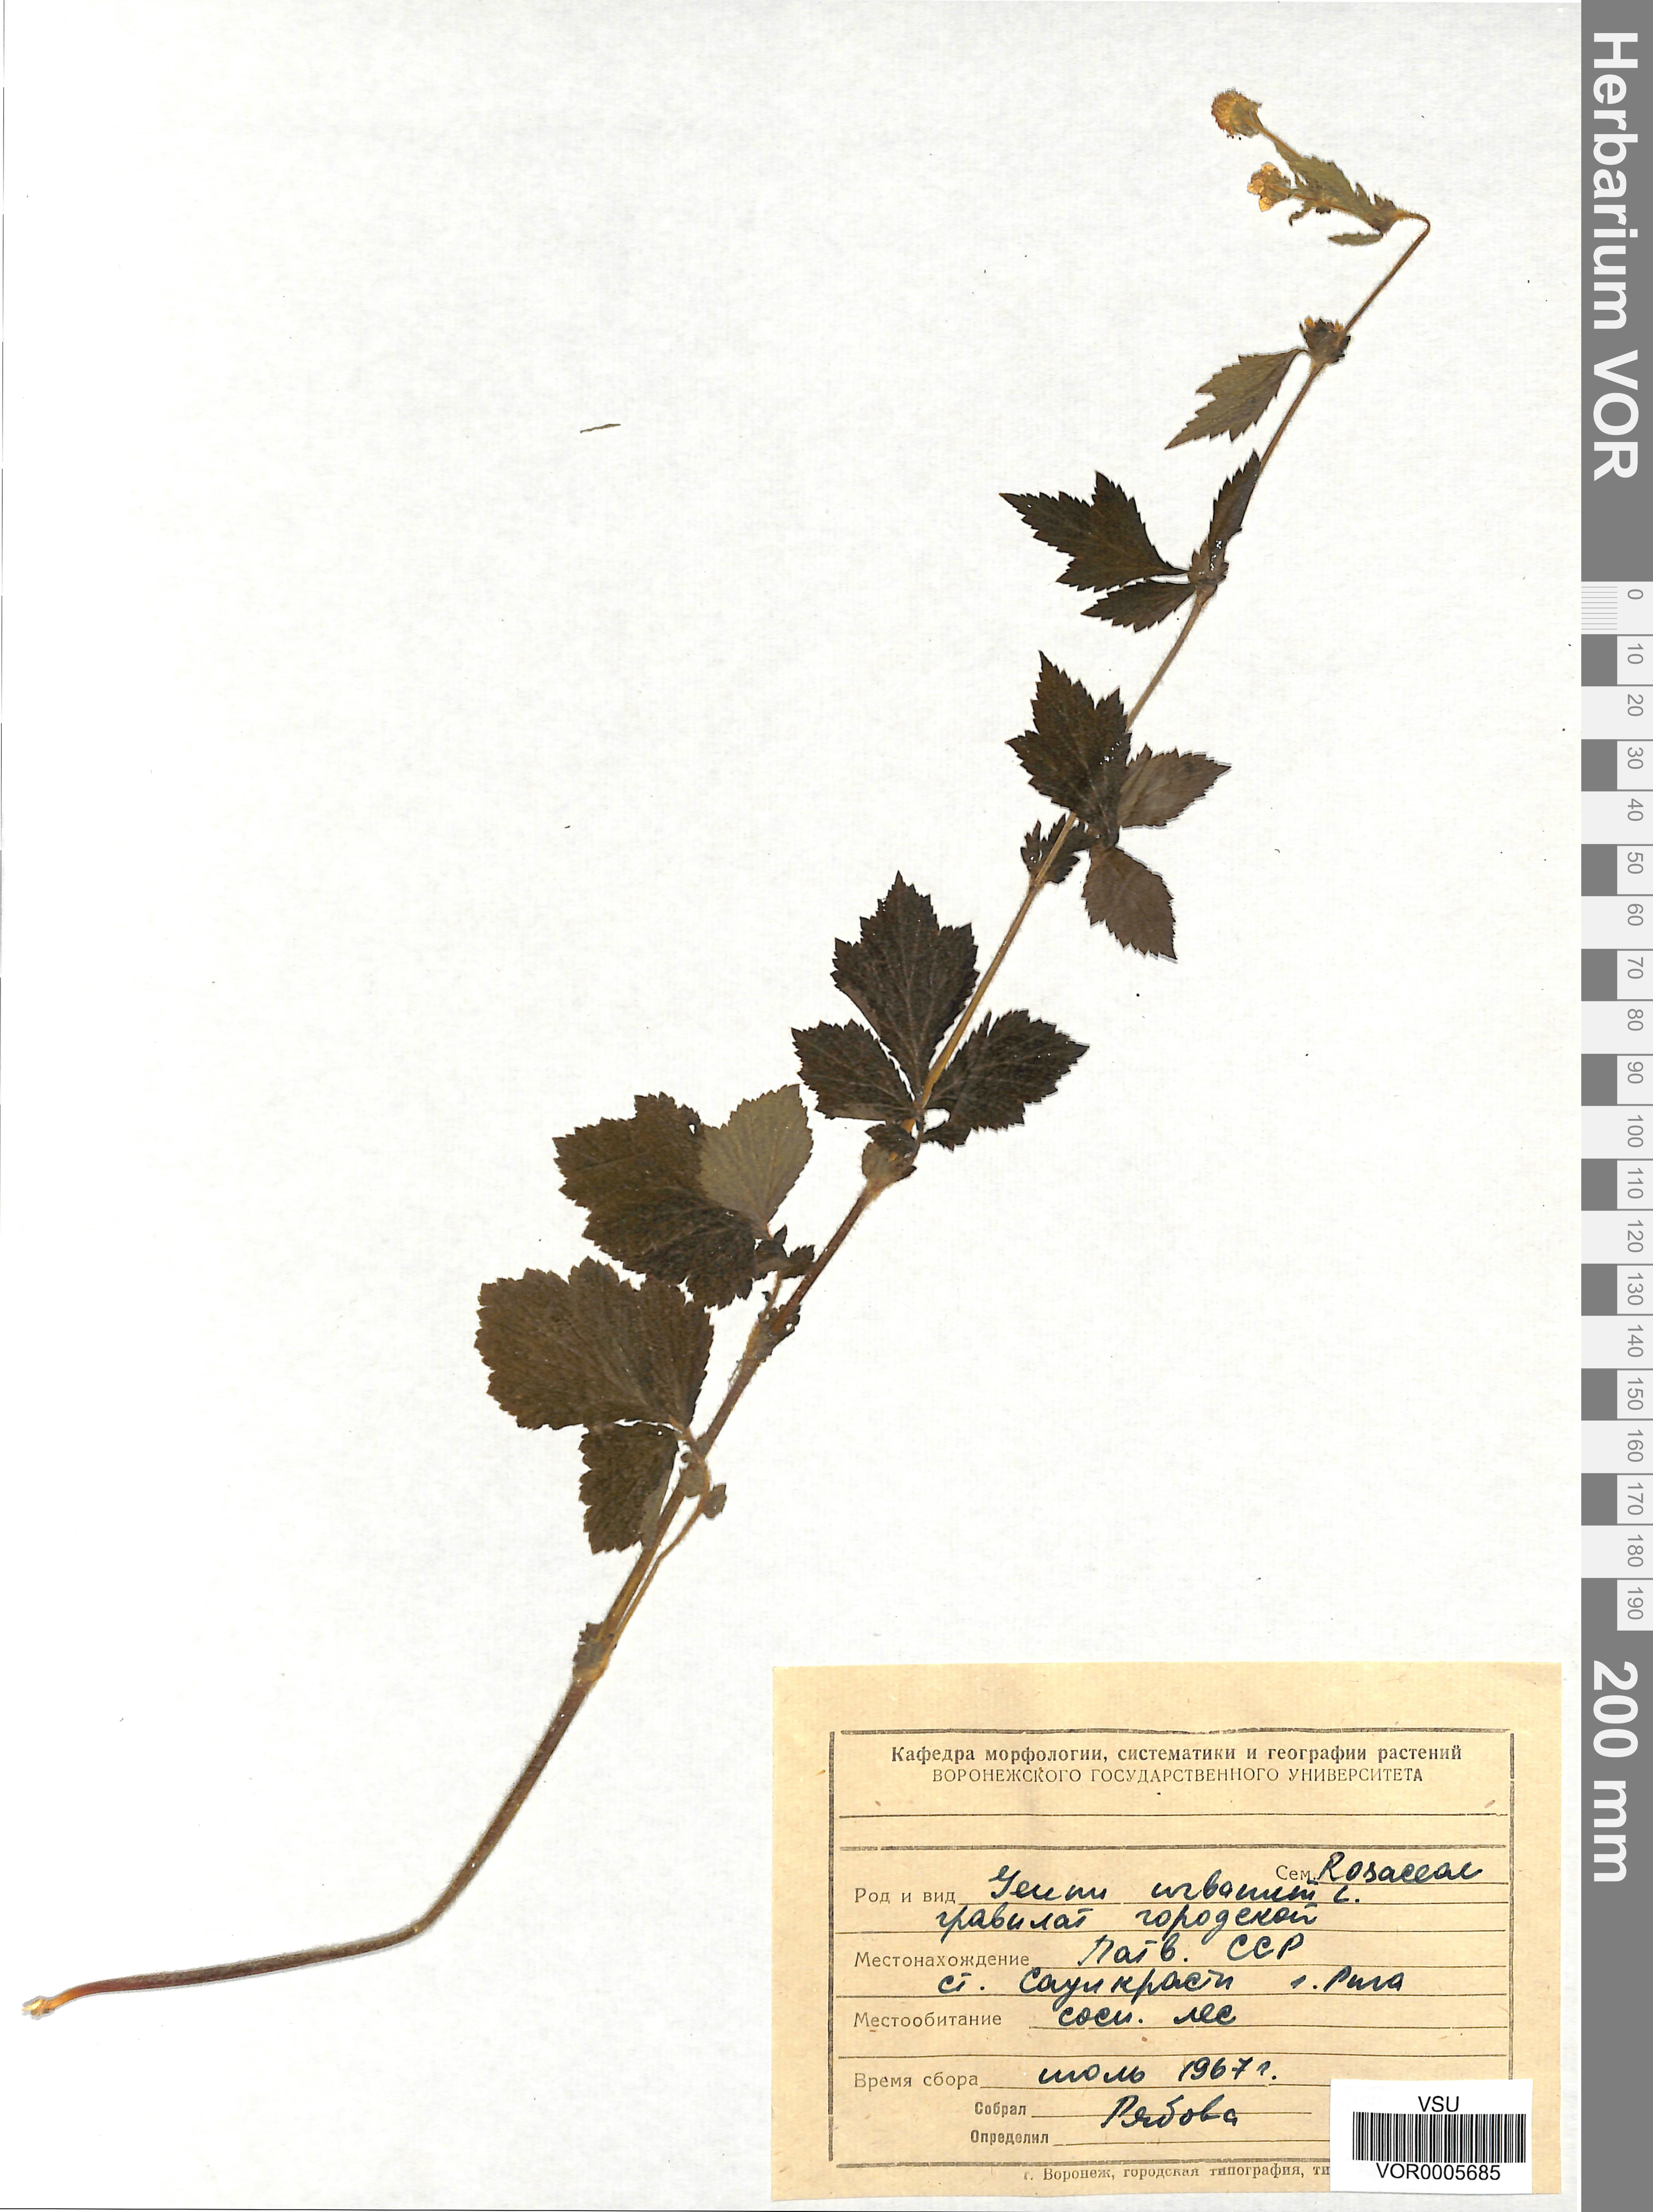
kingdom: Plantae
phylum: Tracheophyta
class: Magnoliopsida
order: Rosales
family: Rosaceae
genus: Geum
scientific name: Geum urbanum
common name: Wood avens
